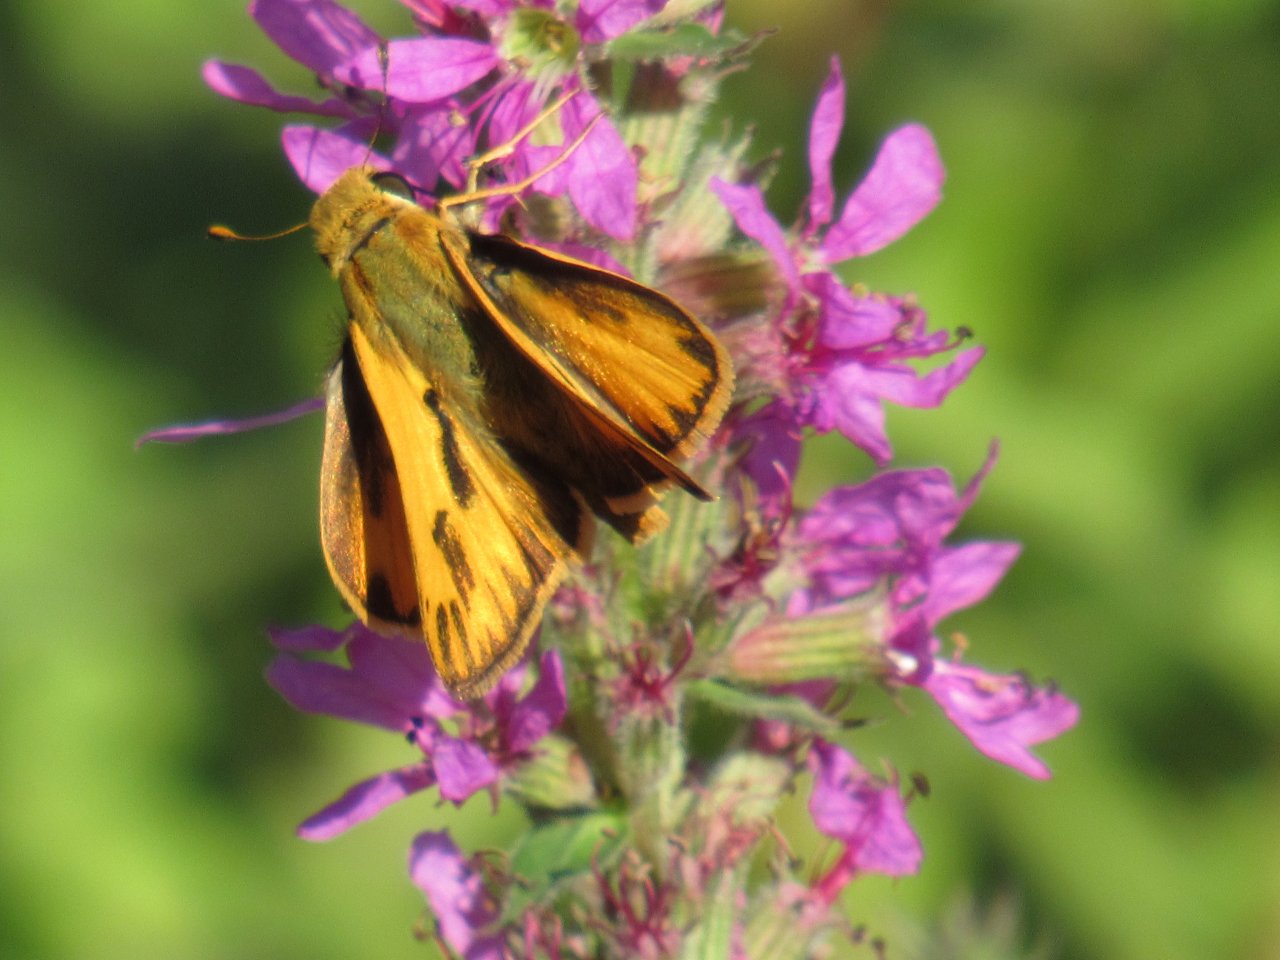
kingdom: Animalia
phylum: Arthropoda
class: Insecta
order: Lepidoptera
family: Hesperiidae
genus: Hylephila
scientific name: Hylephila phyleus
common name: Fiery Skipper
